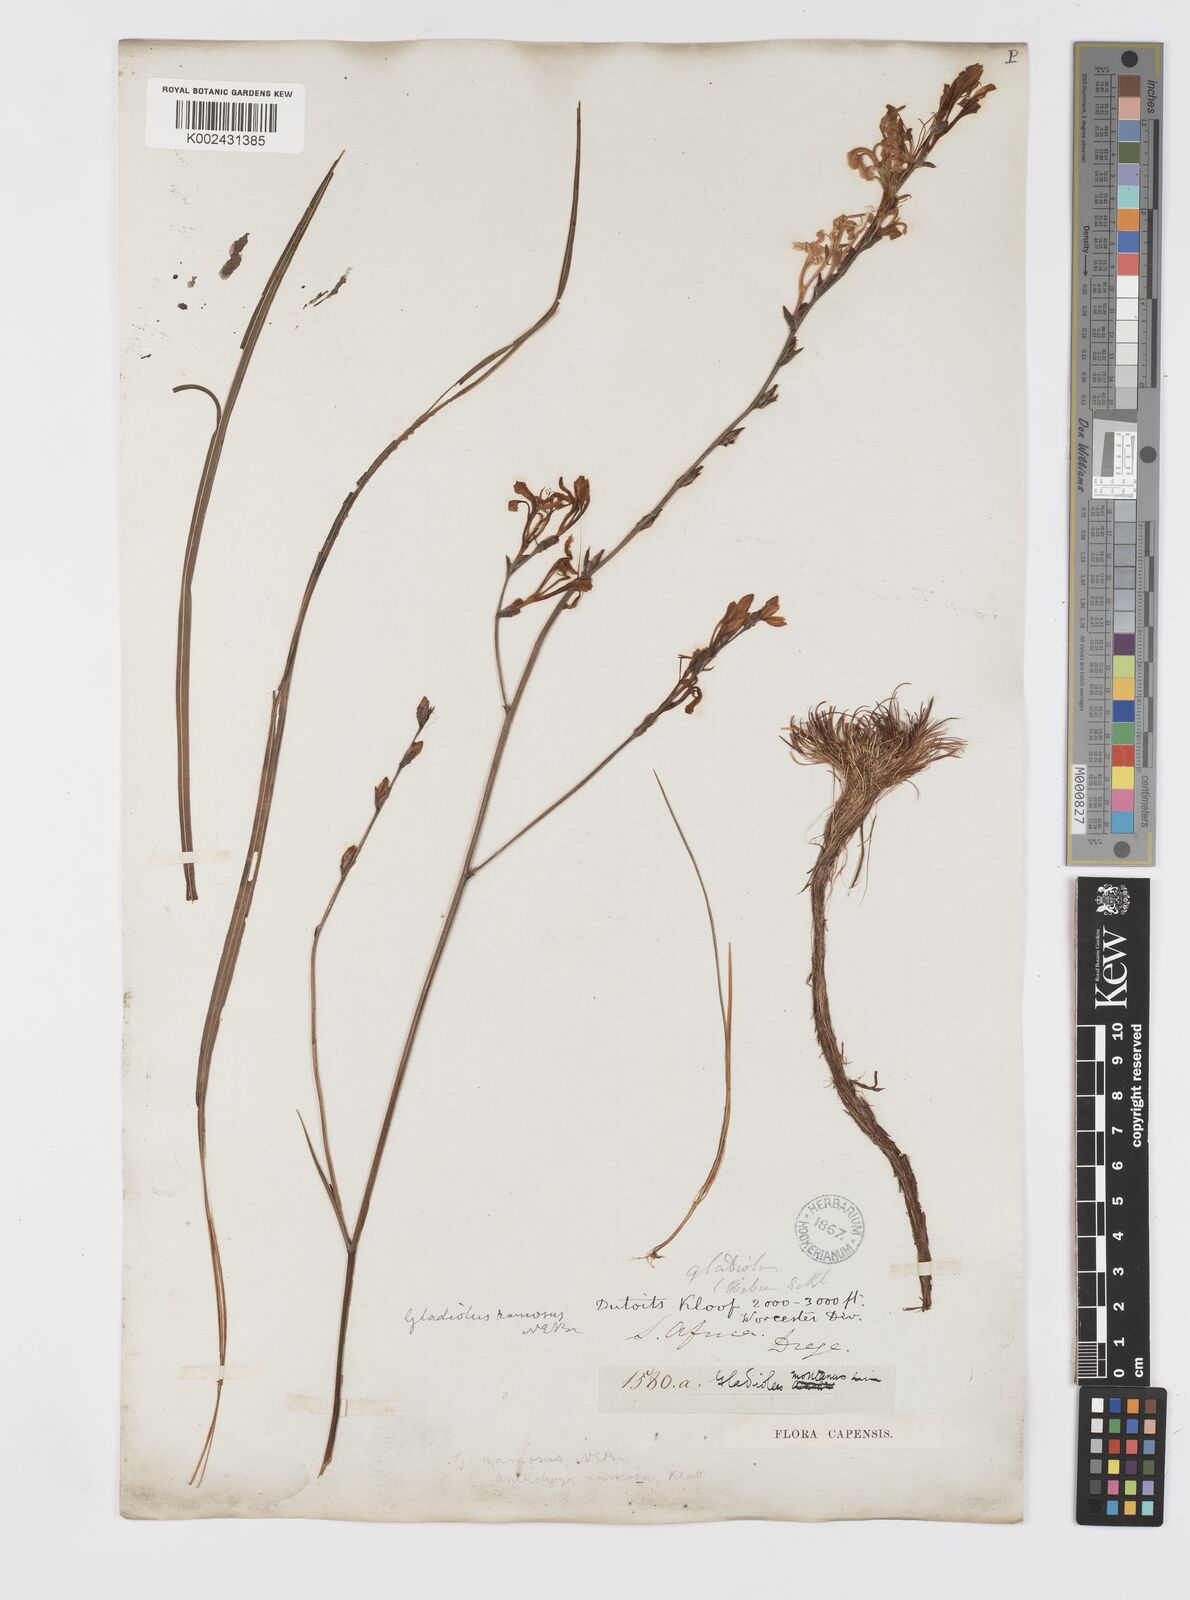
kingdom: Plantae
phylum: Tracheophyta
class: Liliopsida
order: Asparagales
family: Iridaceae
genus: Tritoniopsis
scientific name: Tritoniopsis ramosa
